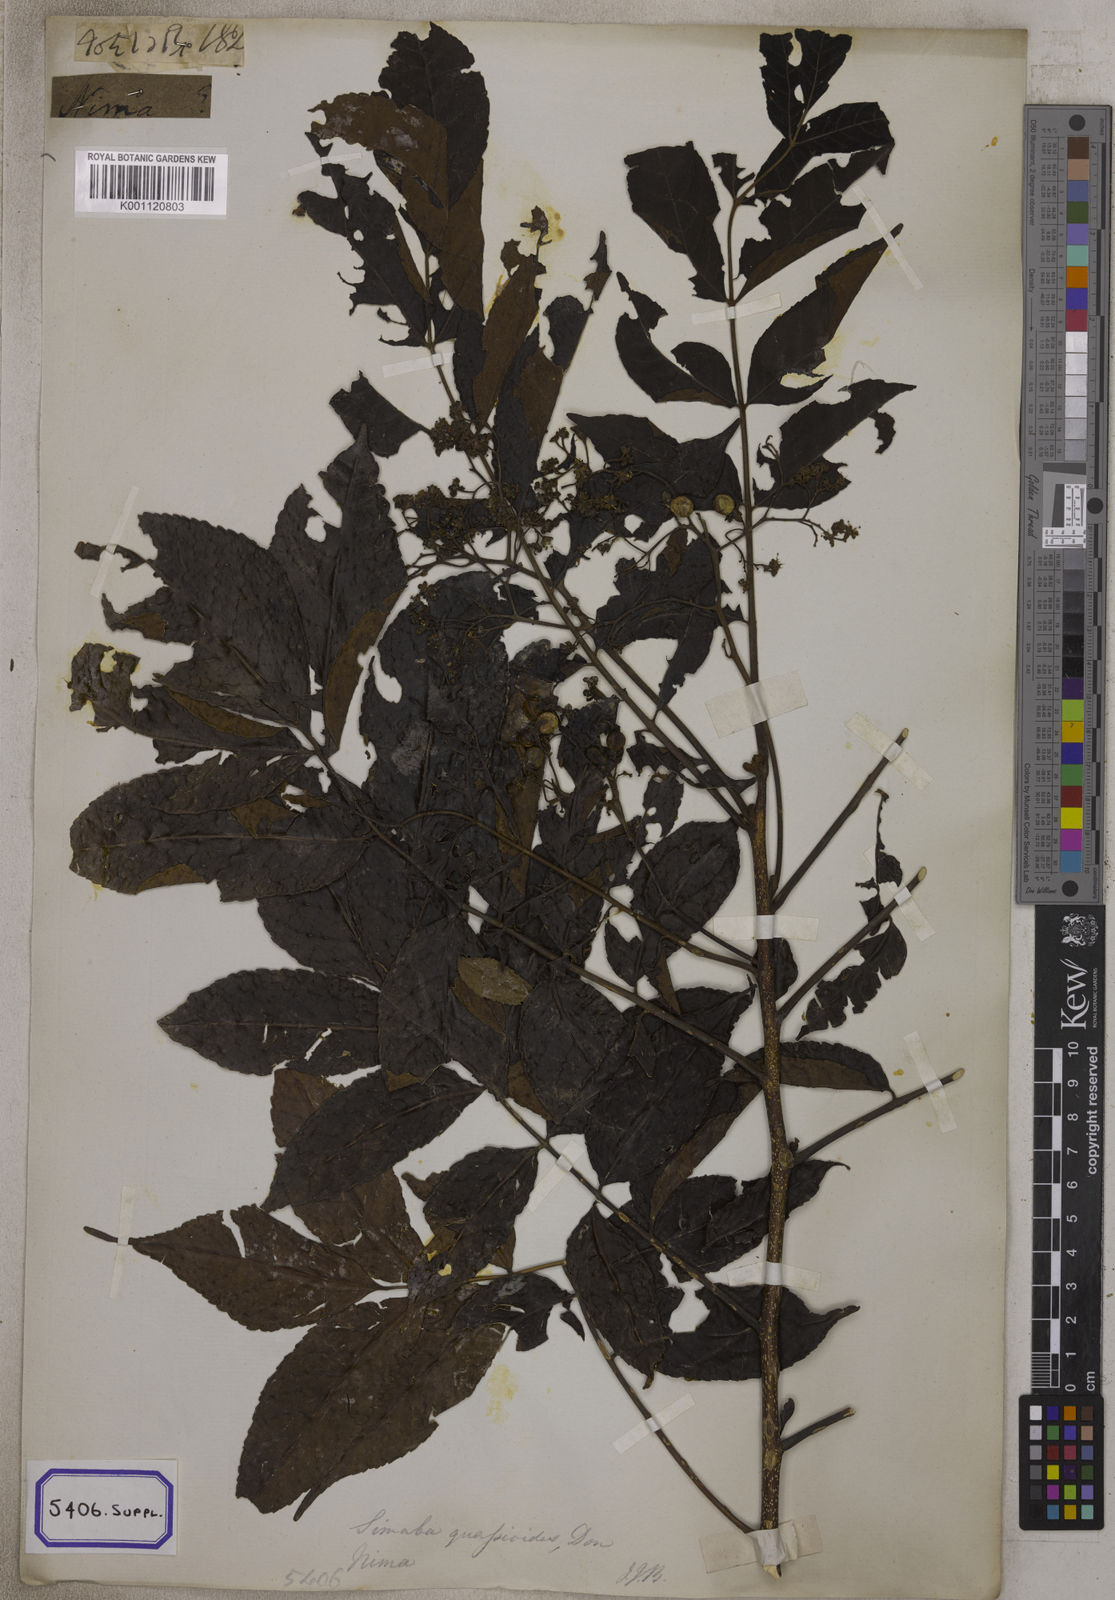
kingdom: Plantae
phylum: Tracheophyta
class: Magnoliopsida
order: Fabales
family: Fabaceae
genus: Crotalaria
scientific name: Crotalaria spectabilis
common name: Showy rattlebox
